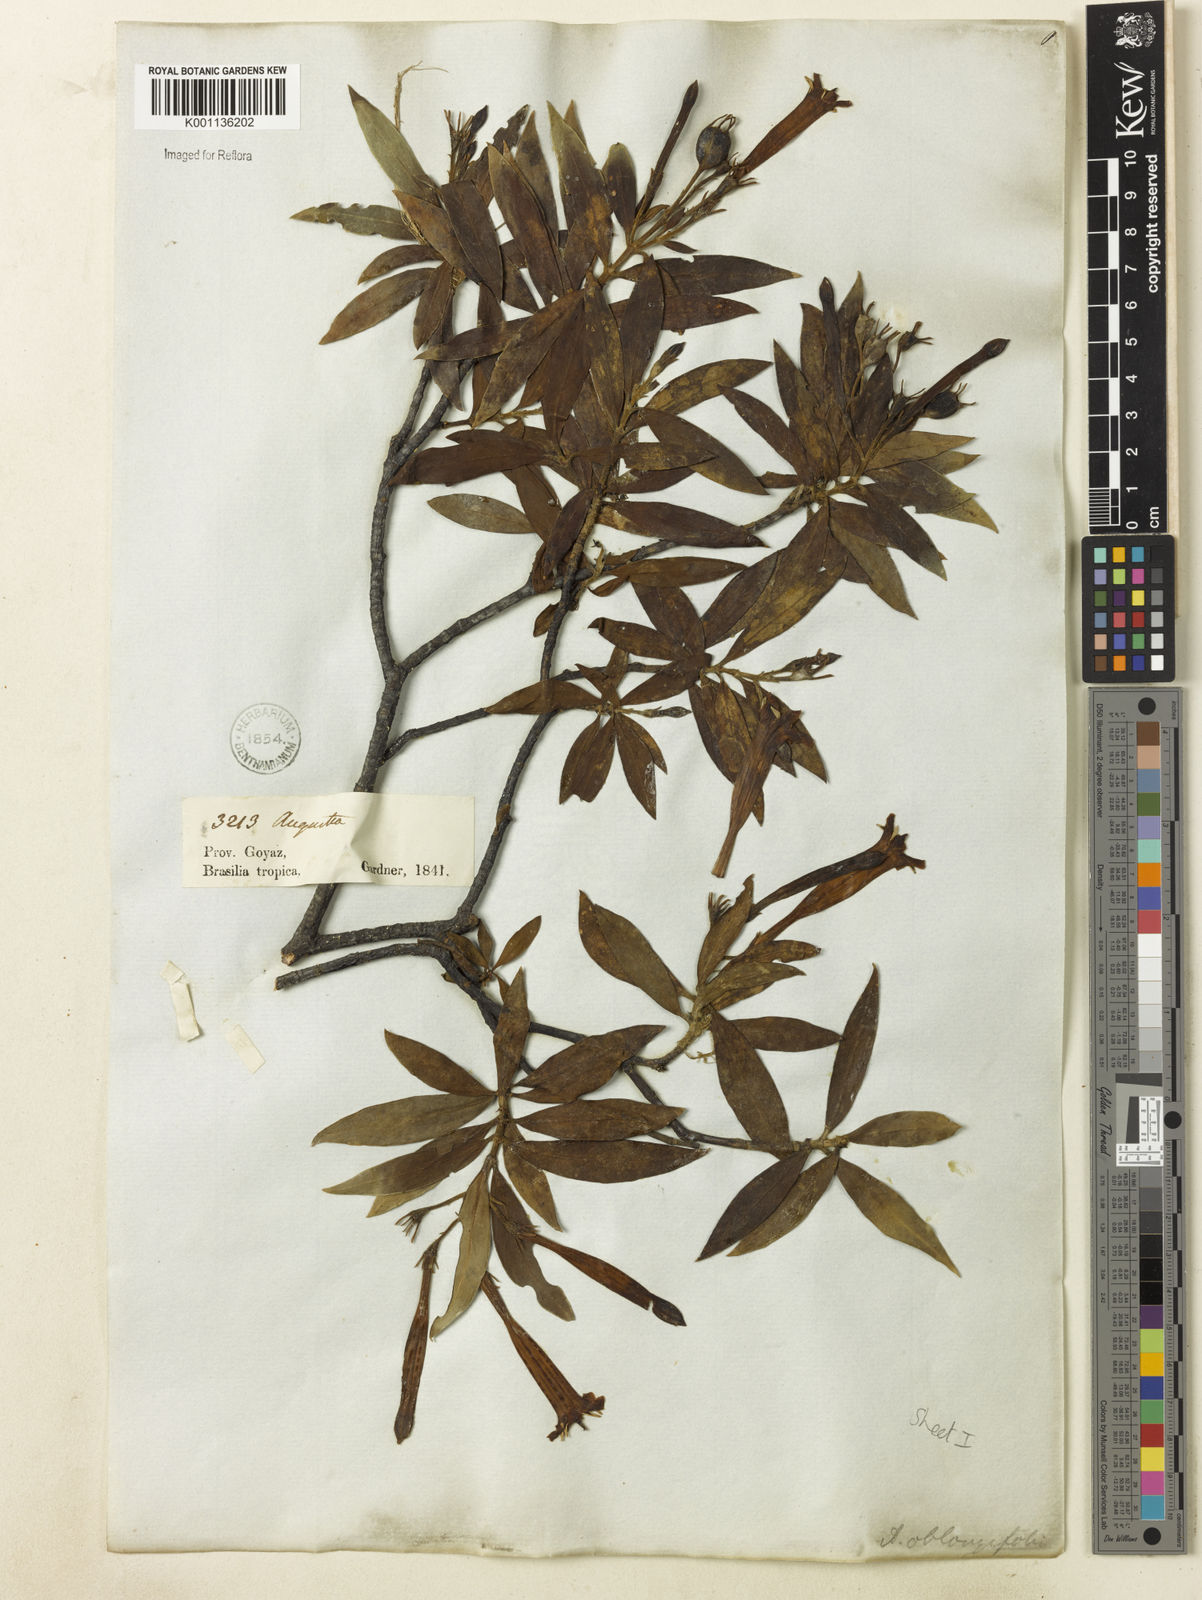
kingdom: Plantae
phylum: Tracheophyta
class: Magnoliopsida
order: Gentianales
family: Rubiaceae
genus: Augusta
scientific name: Augusta longifolia
